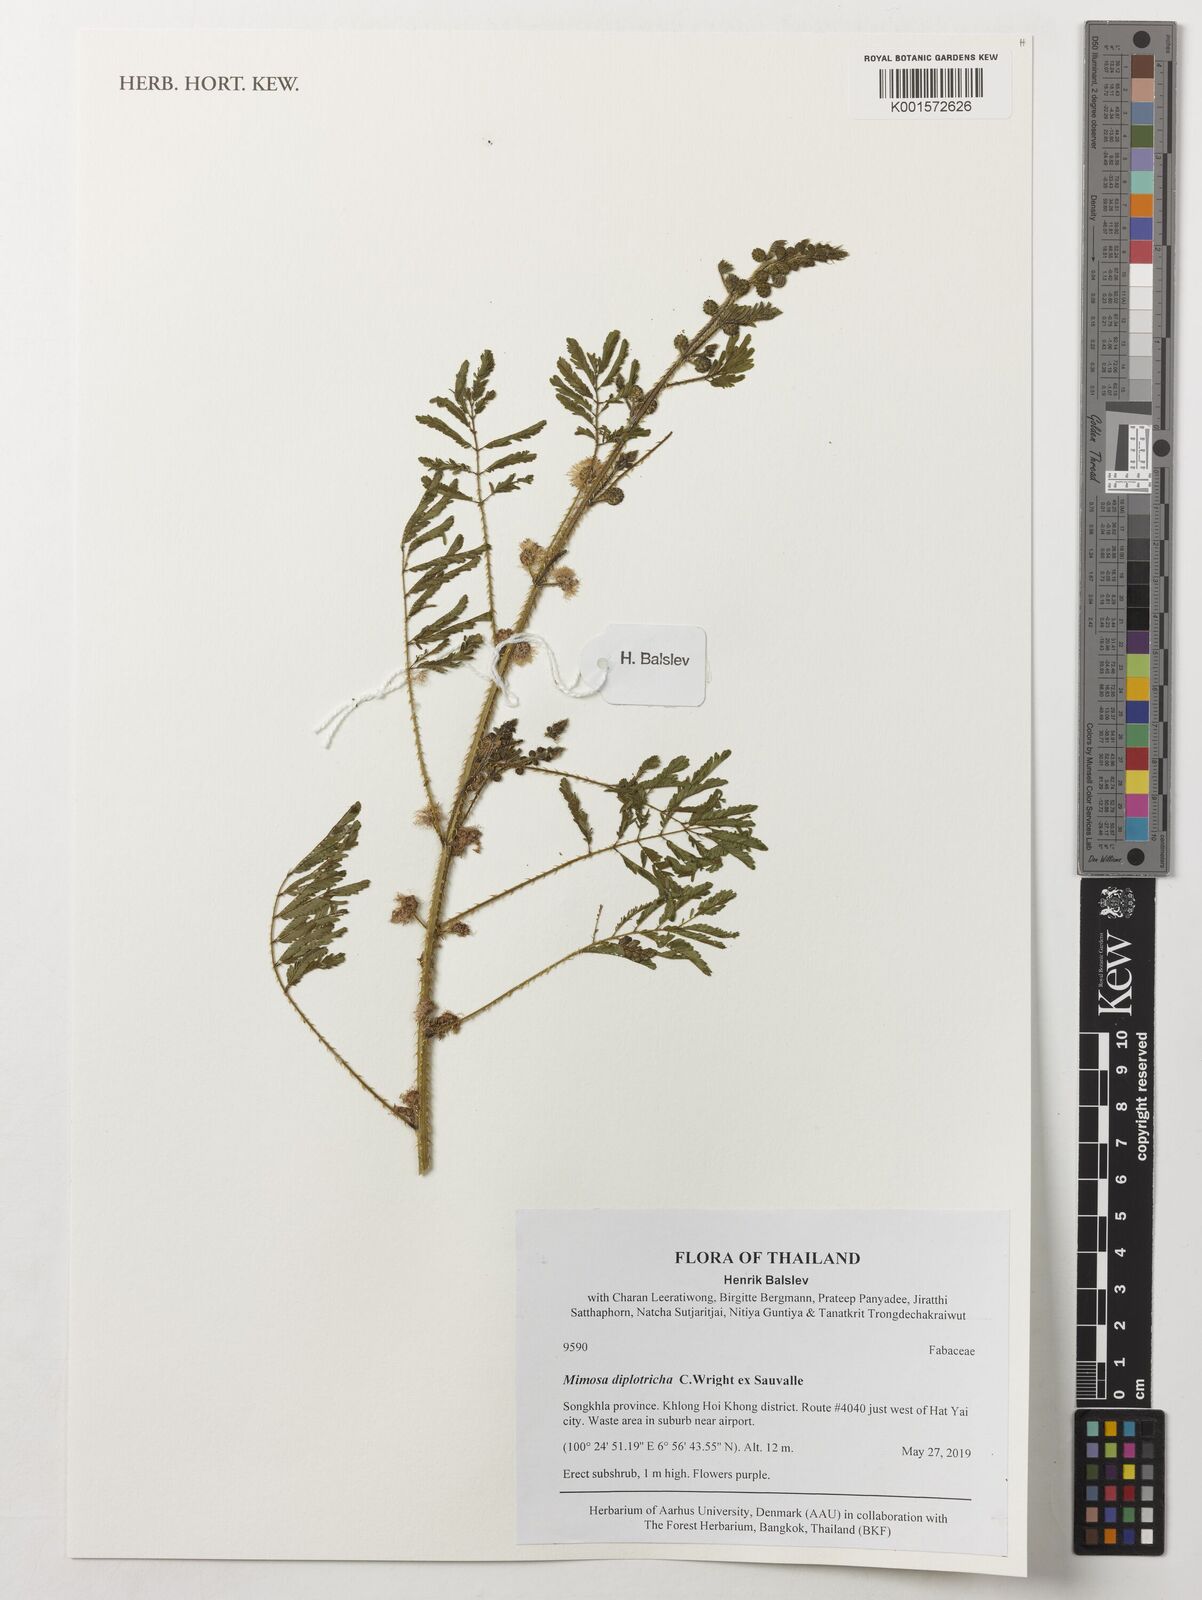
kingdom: Plantae
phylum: Tracheophyta
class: Magnoliopsida
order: Fabales
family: Fabaceae
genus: Mimosa
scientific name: Mimosa diplotricha
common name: Giant sensitive-plant
